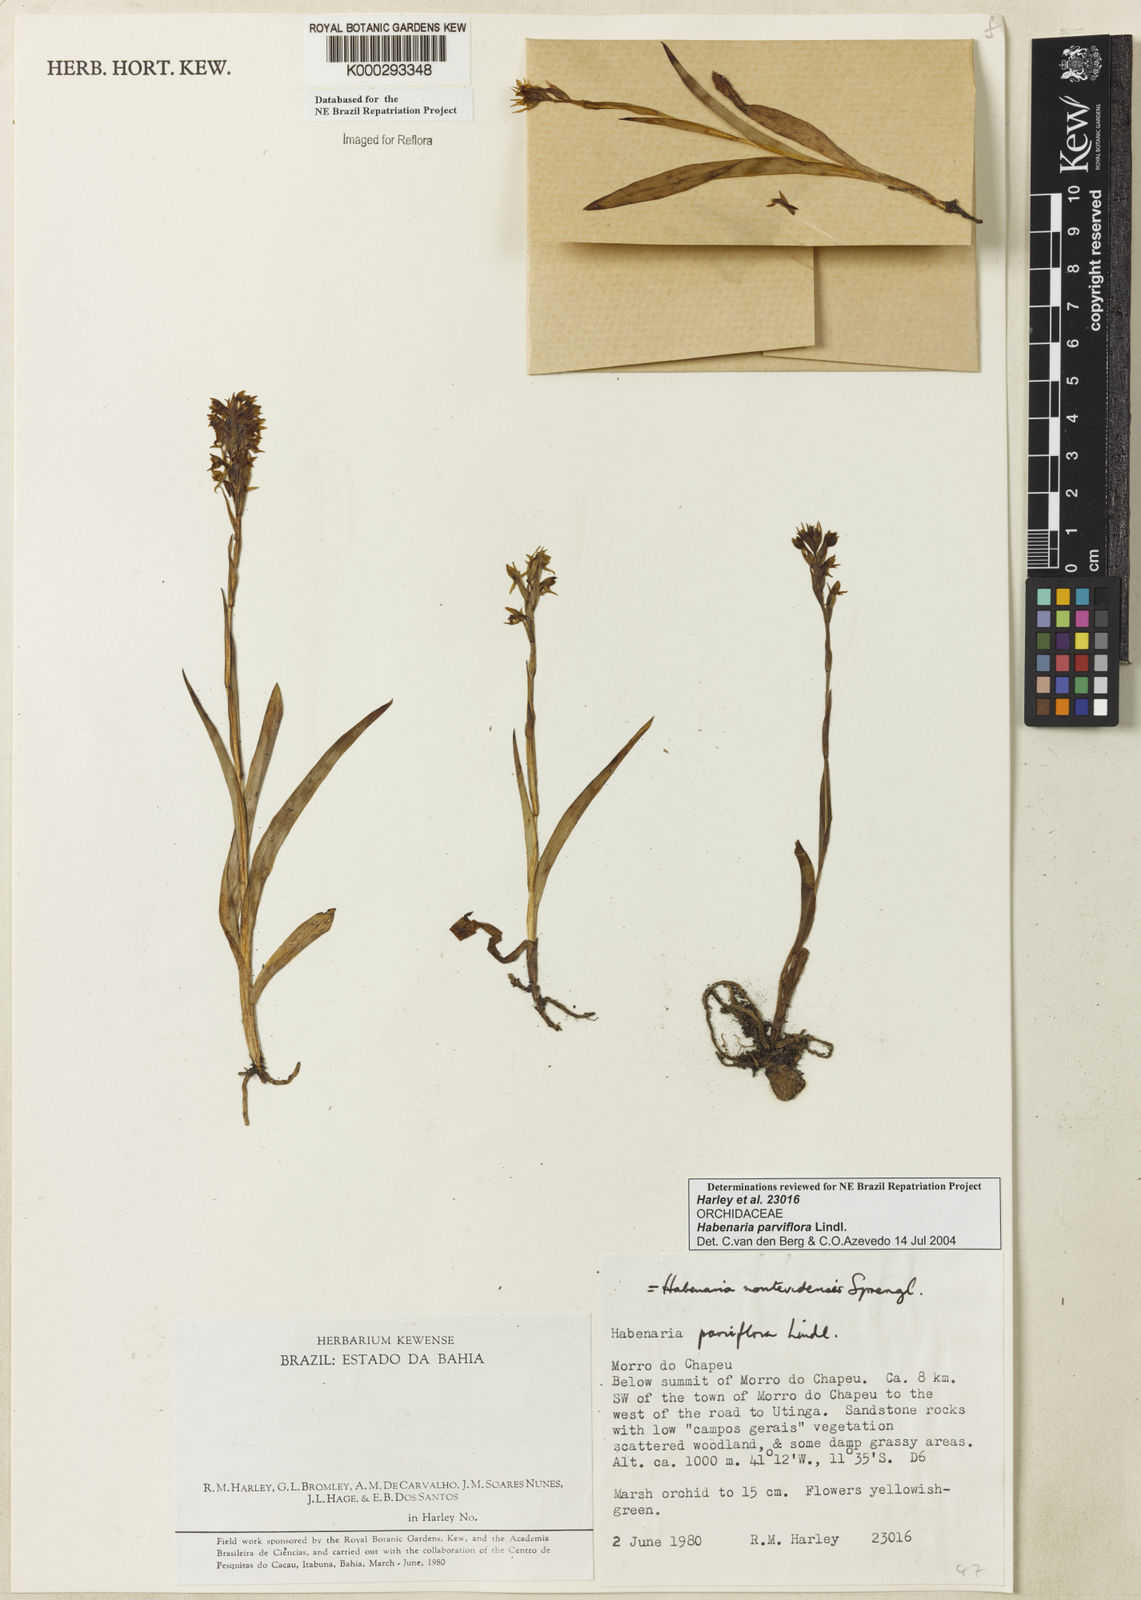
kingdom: Plantae
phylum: Tracheophyta
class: Liliopsida
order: Asparagales
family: Orchidaceae
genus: Habenaria
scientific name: Habenaria parviflora
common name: Small flowered habenaria
